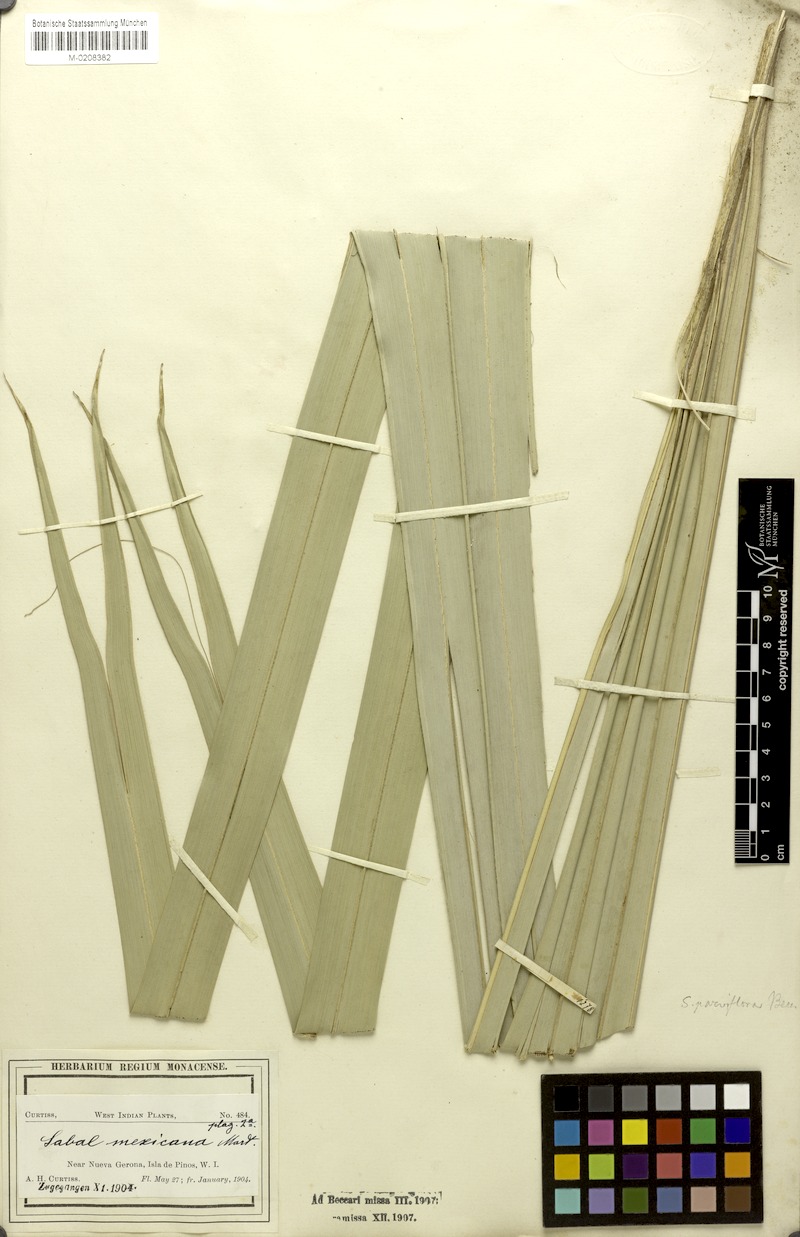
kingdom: Plantae
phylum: Tracheophyta
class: Liliopsida
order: Arecales
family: Arecaceae
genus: Sabal
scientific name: Sabal mexicana
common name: Texas palmetto
